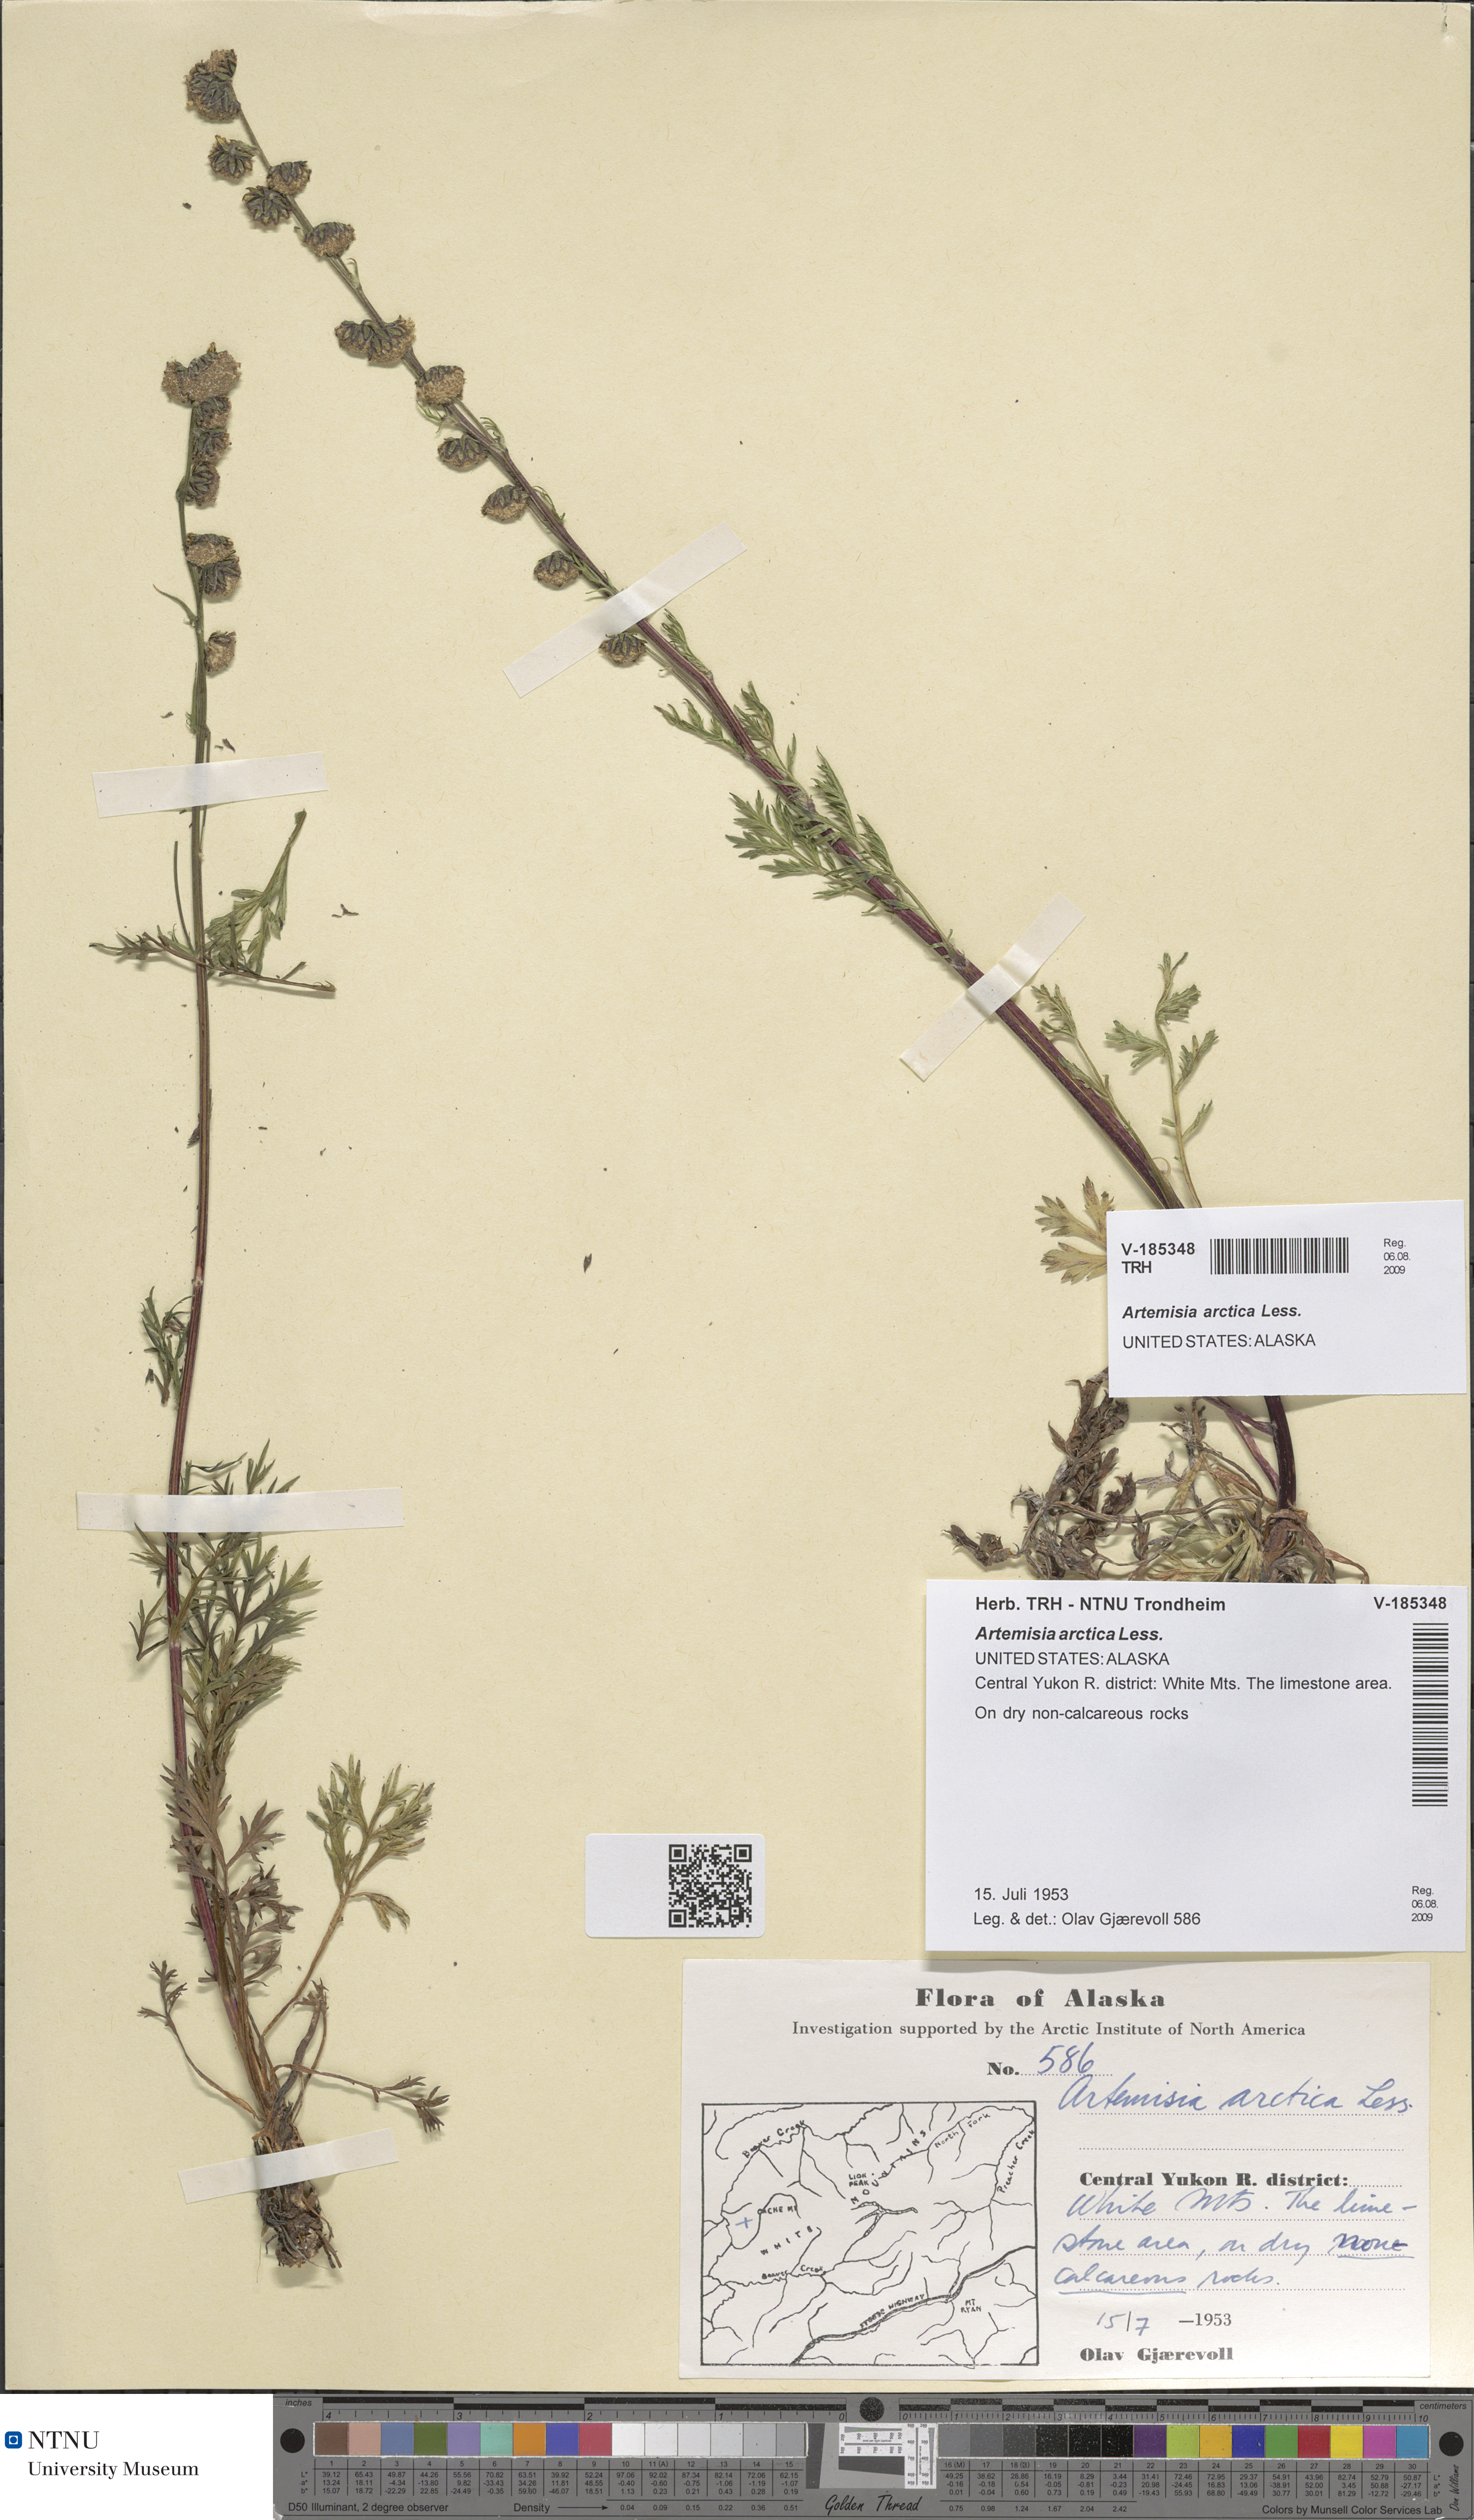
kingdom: Plantae
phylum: Tracheophyta
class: Magnoliopsida
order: Asterales
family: Asteraceae
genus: Artemisia
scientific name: Artemisia norvegica
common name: Norwegian mugwort
